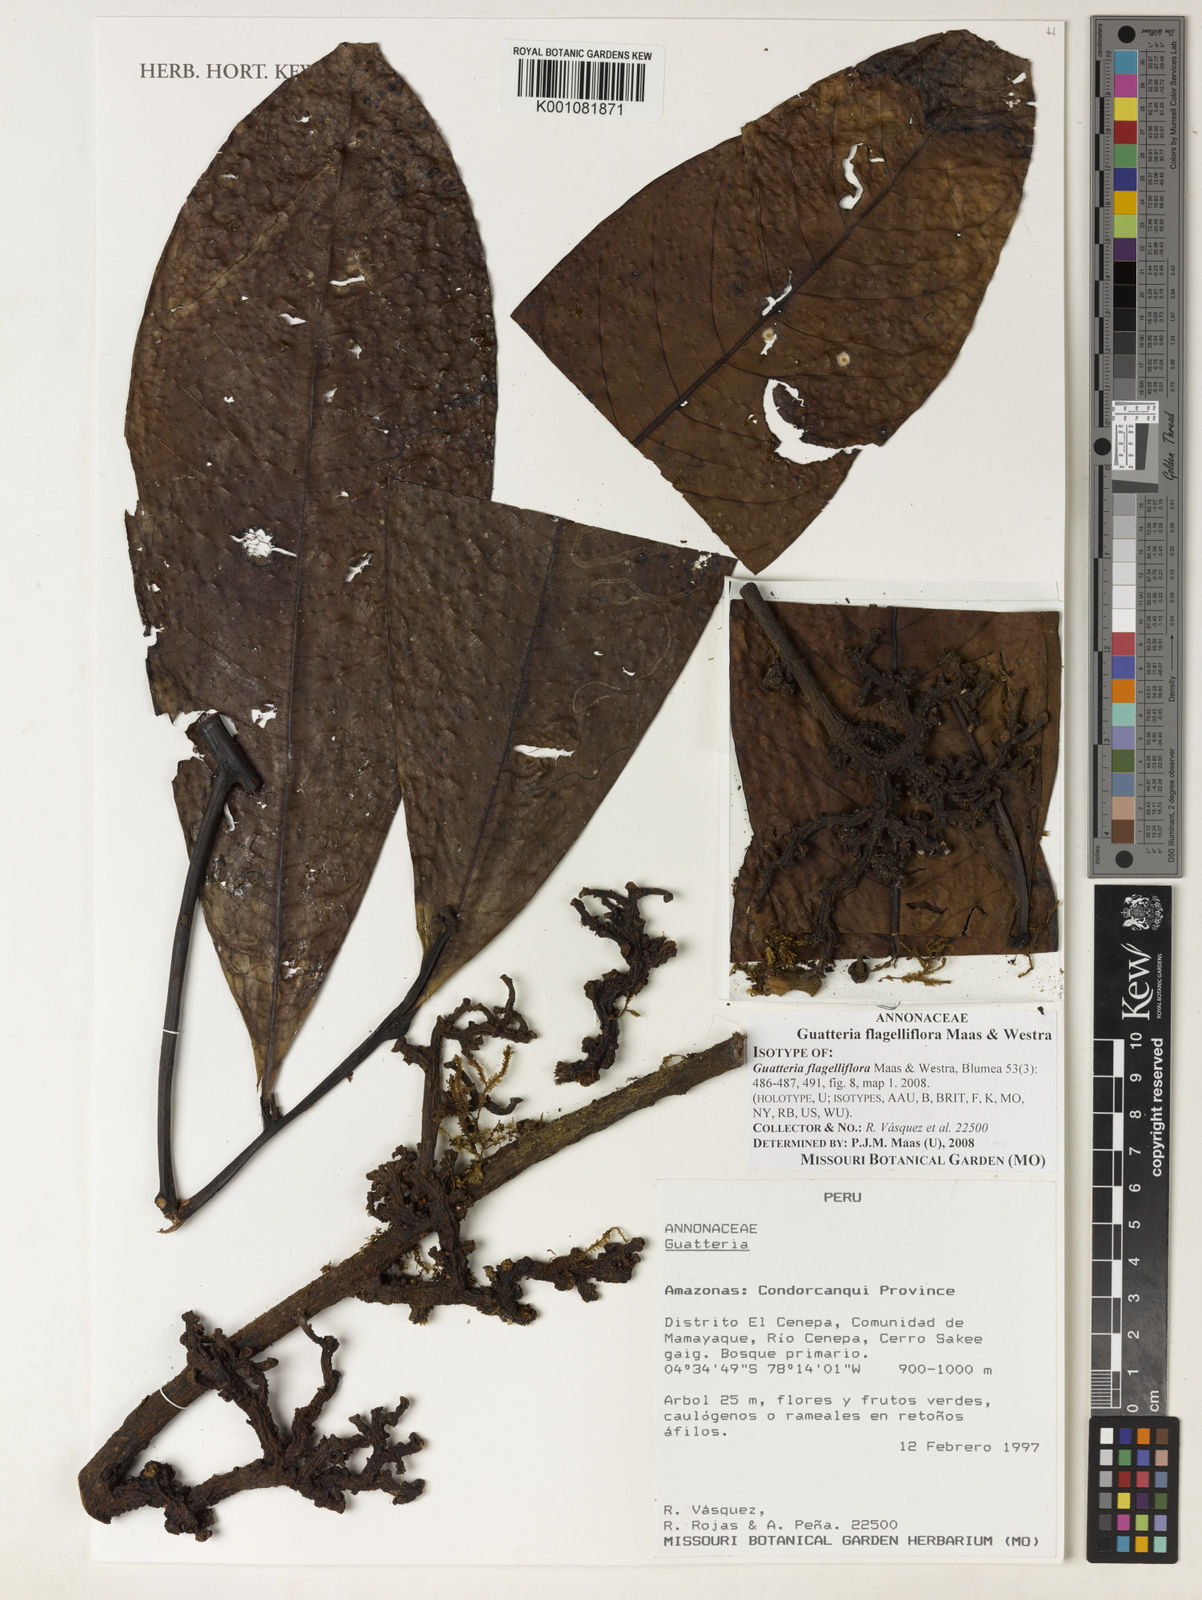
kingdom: Plantae
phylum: Tracheophyta
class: Magnoliopsida
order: Magnoliales
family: Annonaceae
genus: Guatteria
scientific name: Guatteria flagelliflora
